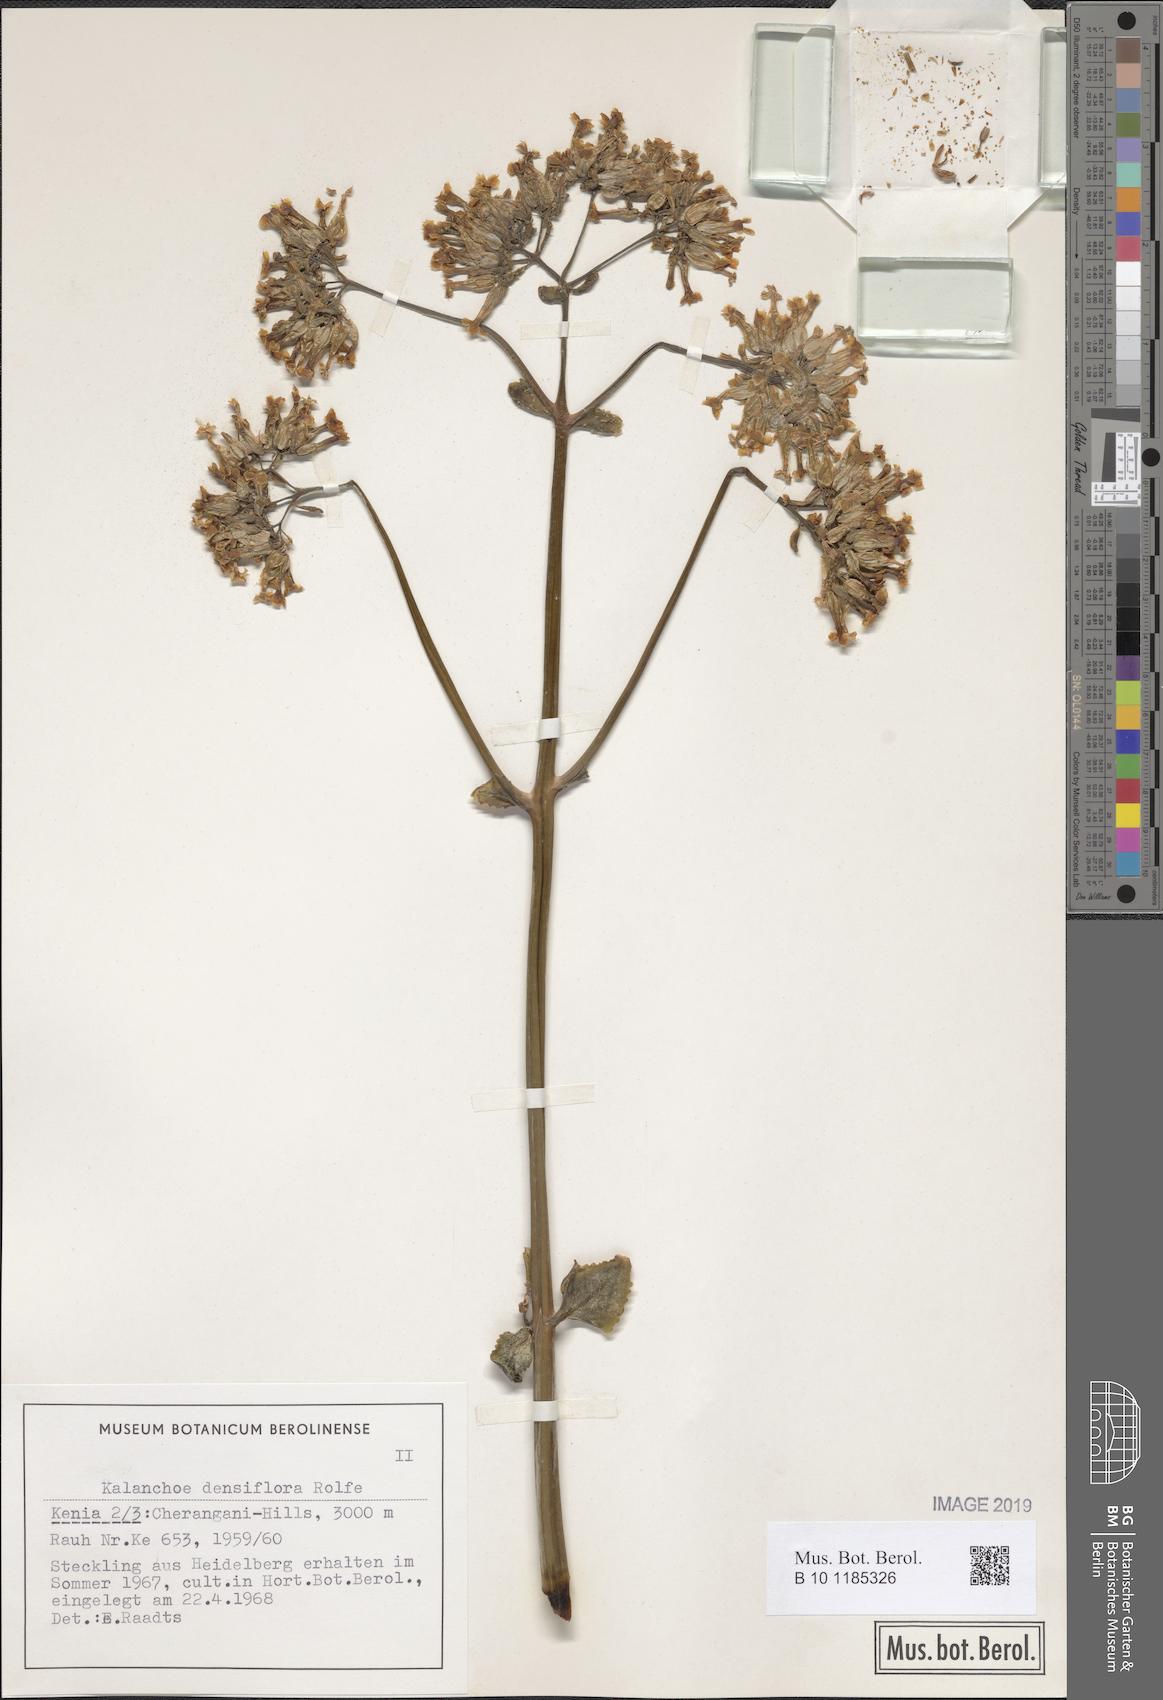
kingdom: Plantae
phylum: Tracheophyta
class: Magnoliopsida
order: Saxifragales
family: Crassulaceae
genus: Kalanchoe
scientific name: Kalanchoe densiflora
